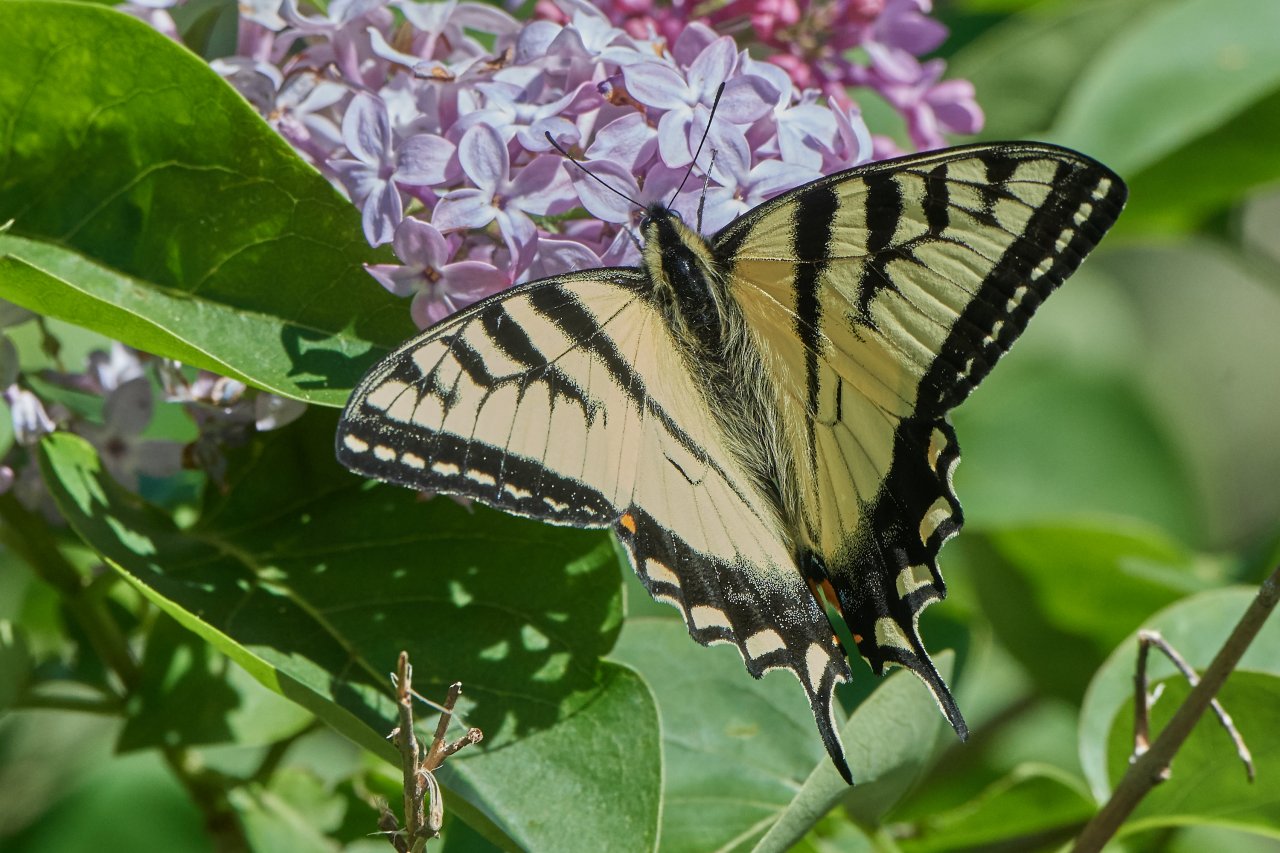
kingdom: Animalia
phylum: Arthropoda
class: Insecta
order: Lepidoptera
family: Papilionidae
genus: Pterourus
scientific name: Pterourus canadensis
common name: Canadian Tiger Swallowtail
